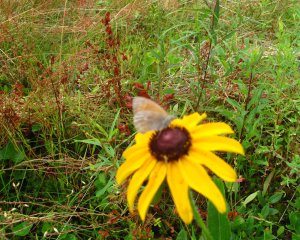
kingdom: Animalia
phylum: Arthropoda
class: Insecta
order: Lepidoptera
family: Nymphalidae
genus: Coenonympha
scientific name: Coenonympha tullia
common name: Large Heath
